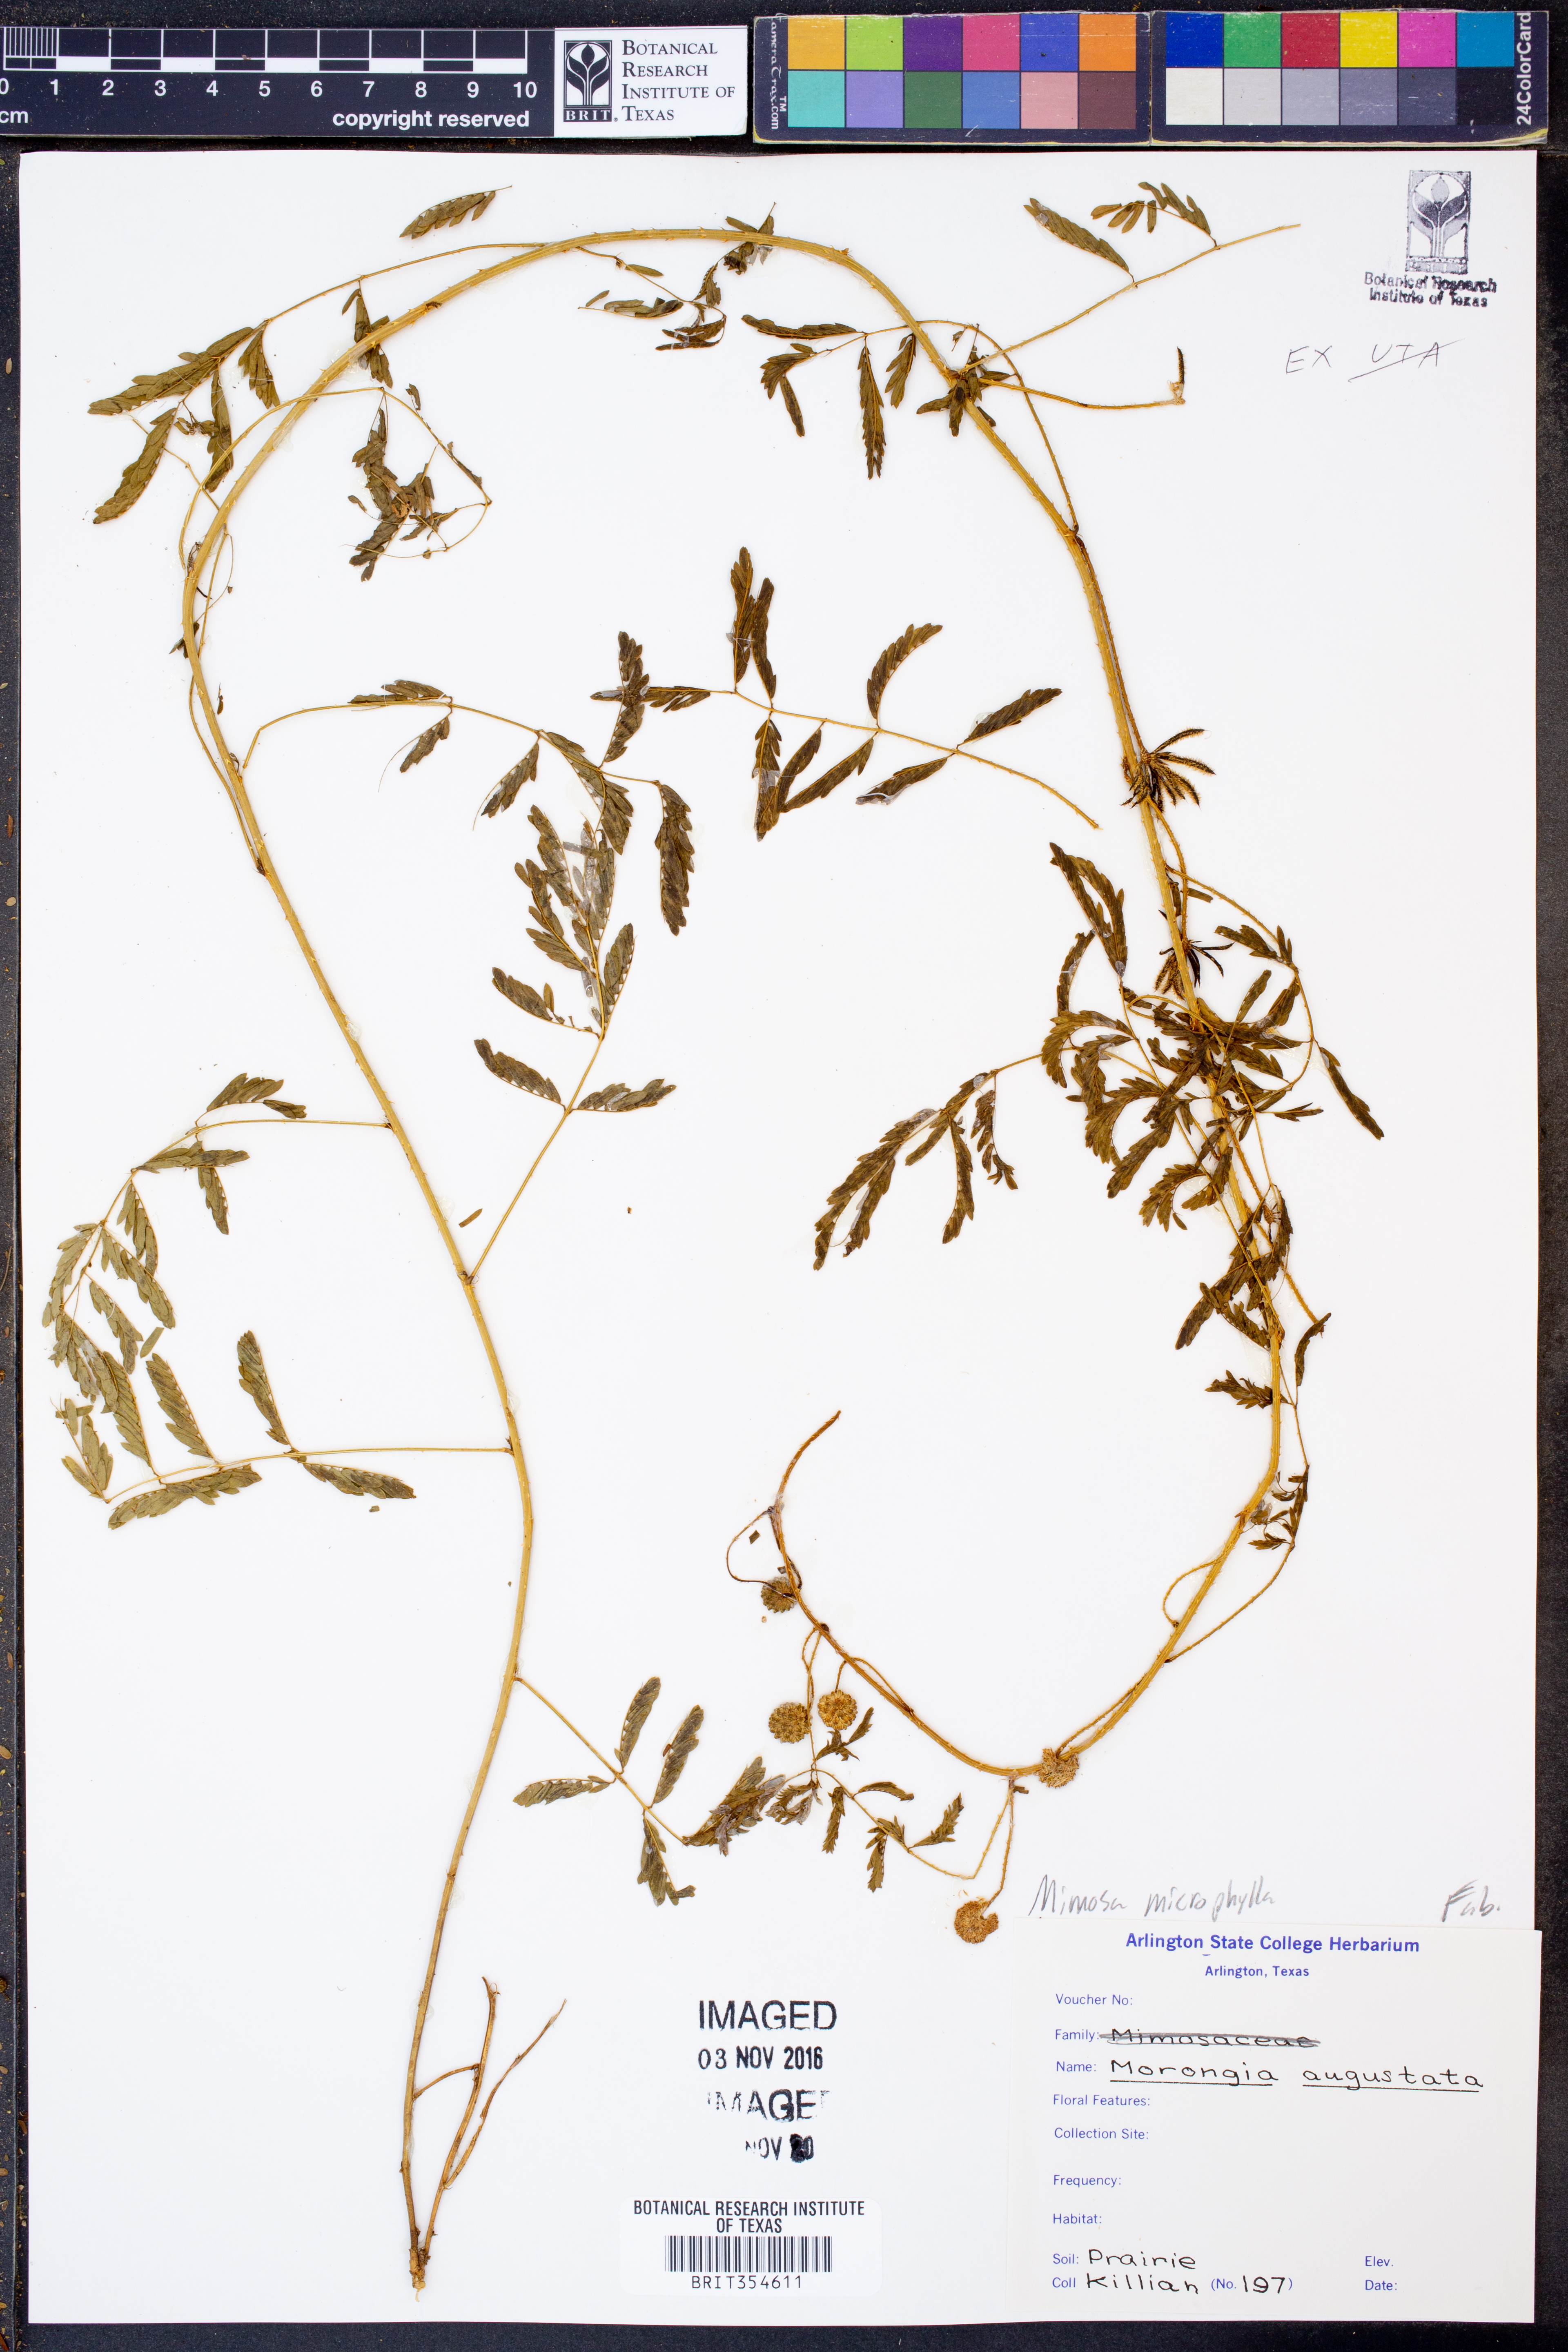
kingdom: Plantae
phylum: Tracheophyta
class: Magnoliopsida
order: Fabales
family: Fabaceae
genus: Mimosa
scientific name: Mimosa quadrivalvis
